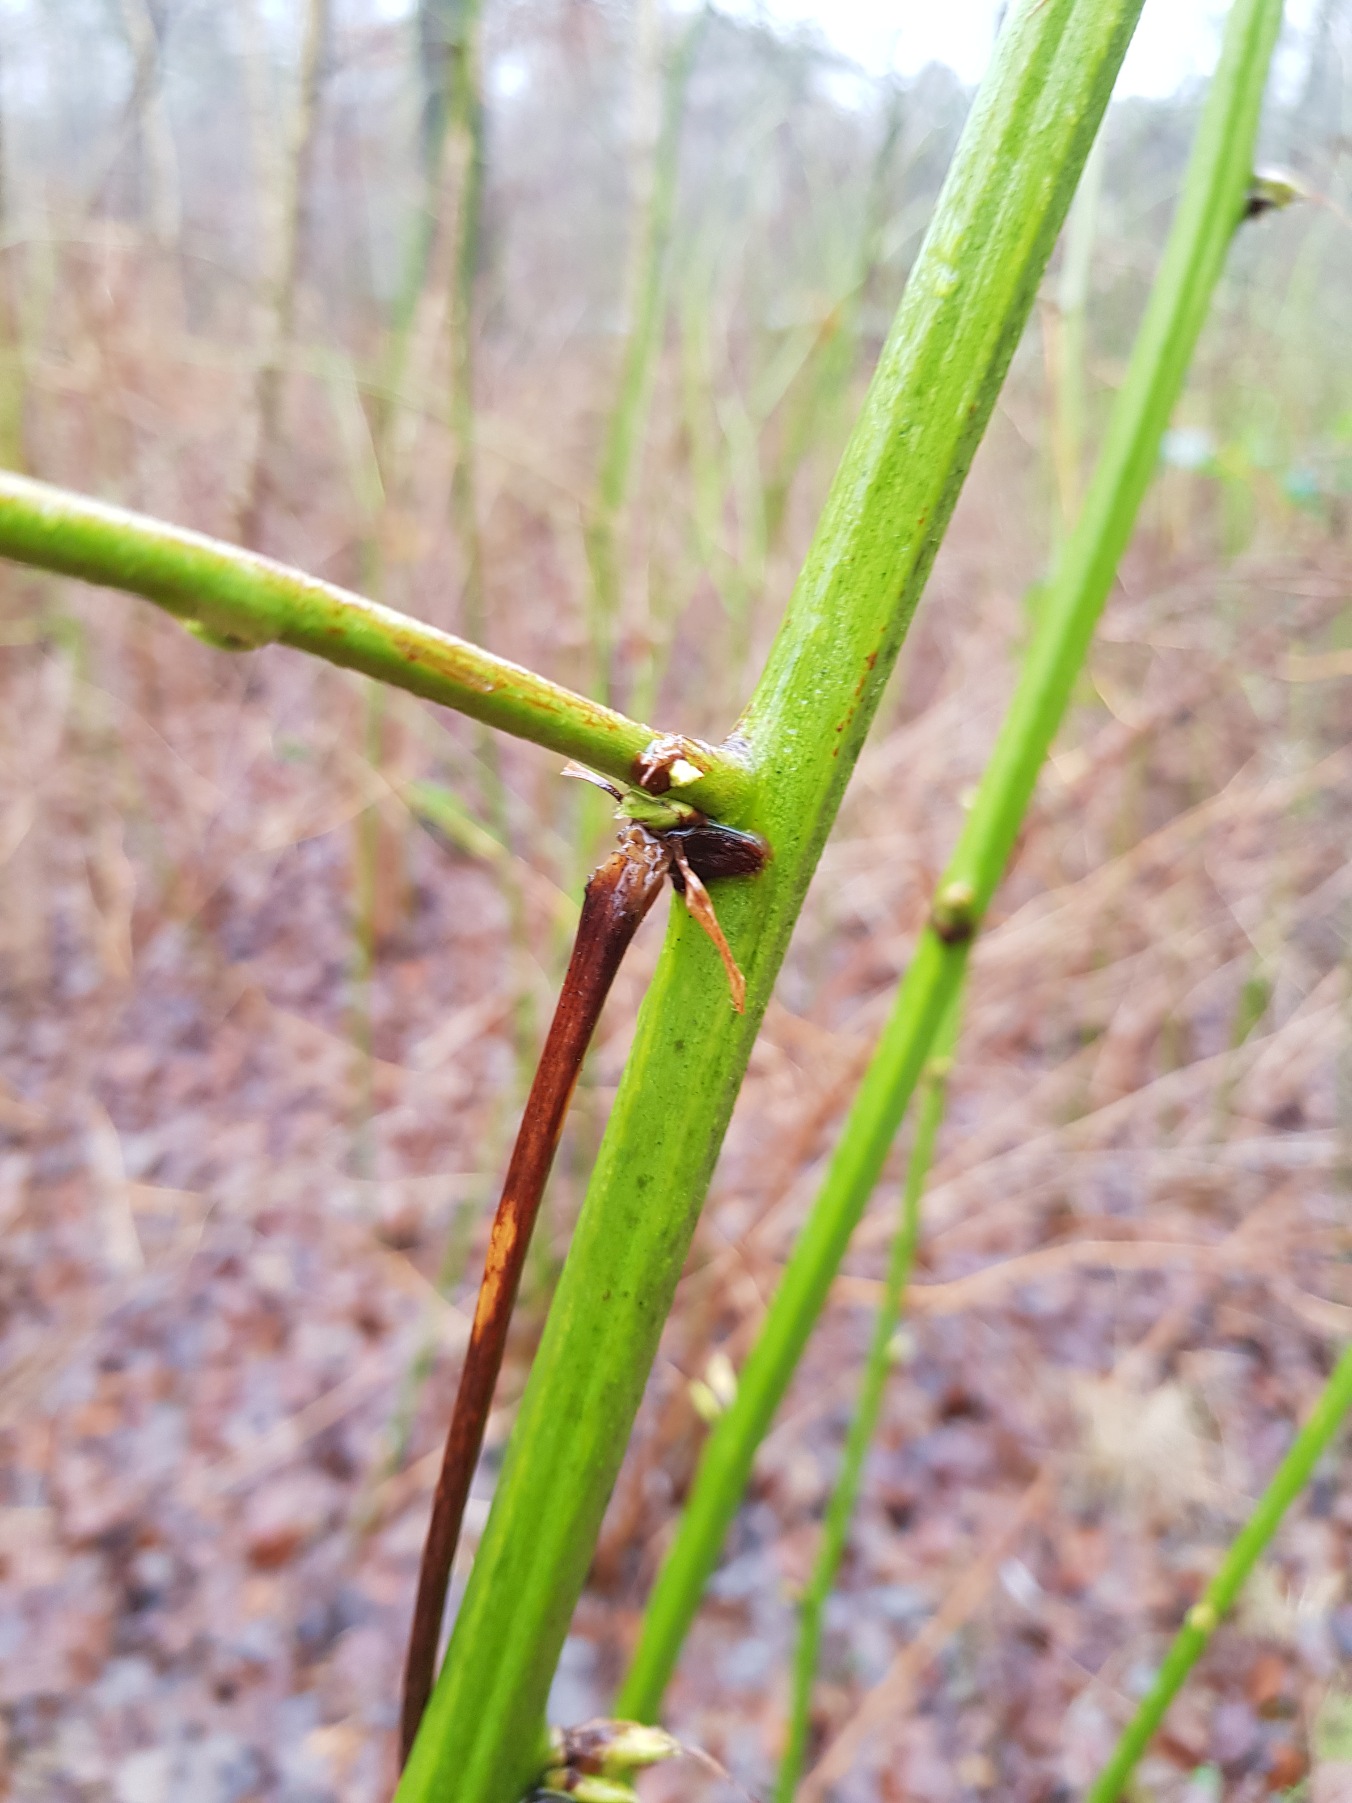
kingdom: Plantae
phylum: Tracheophyta
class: Magnoliopsida
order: Rosales
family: Rosaceae
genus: Rubus
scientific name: Rubus canadensis
